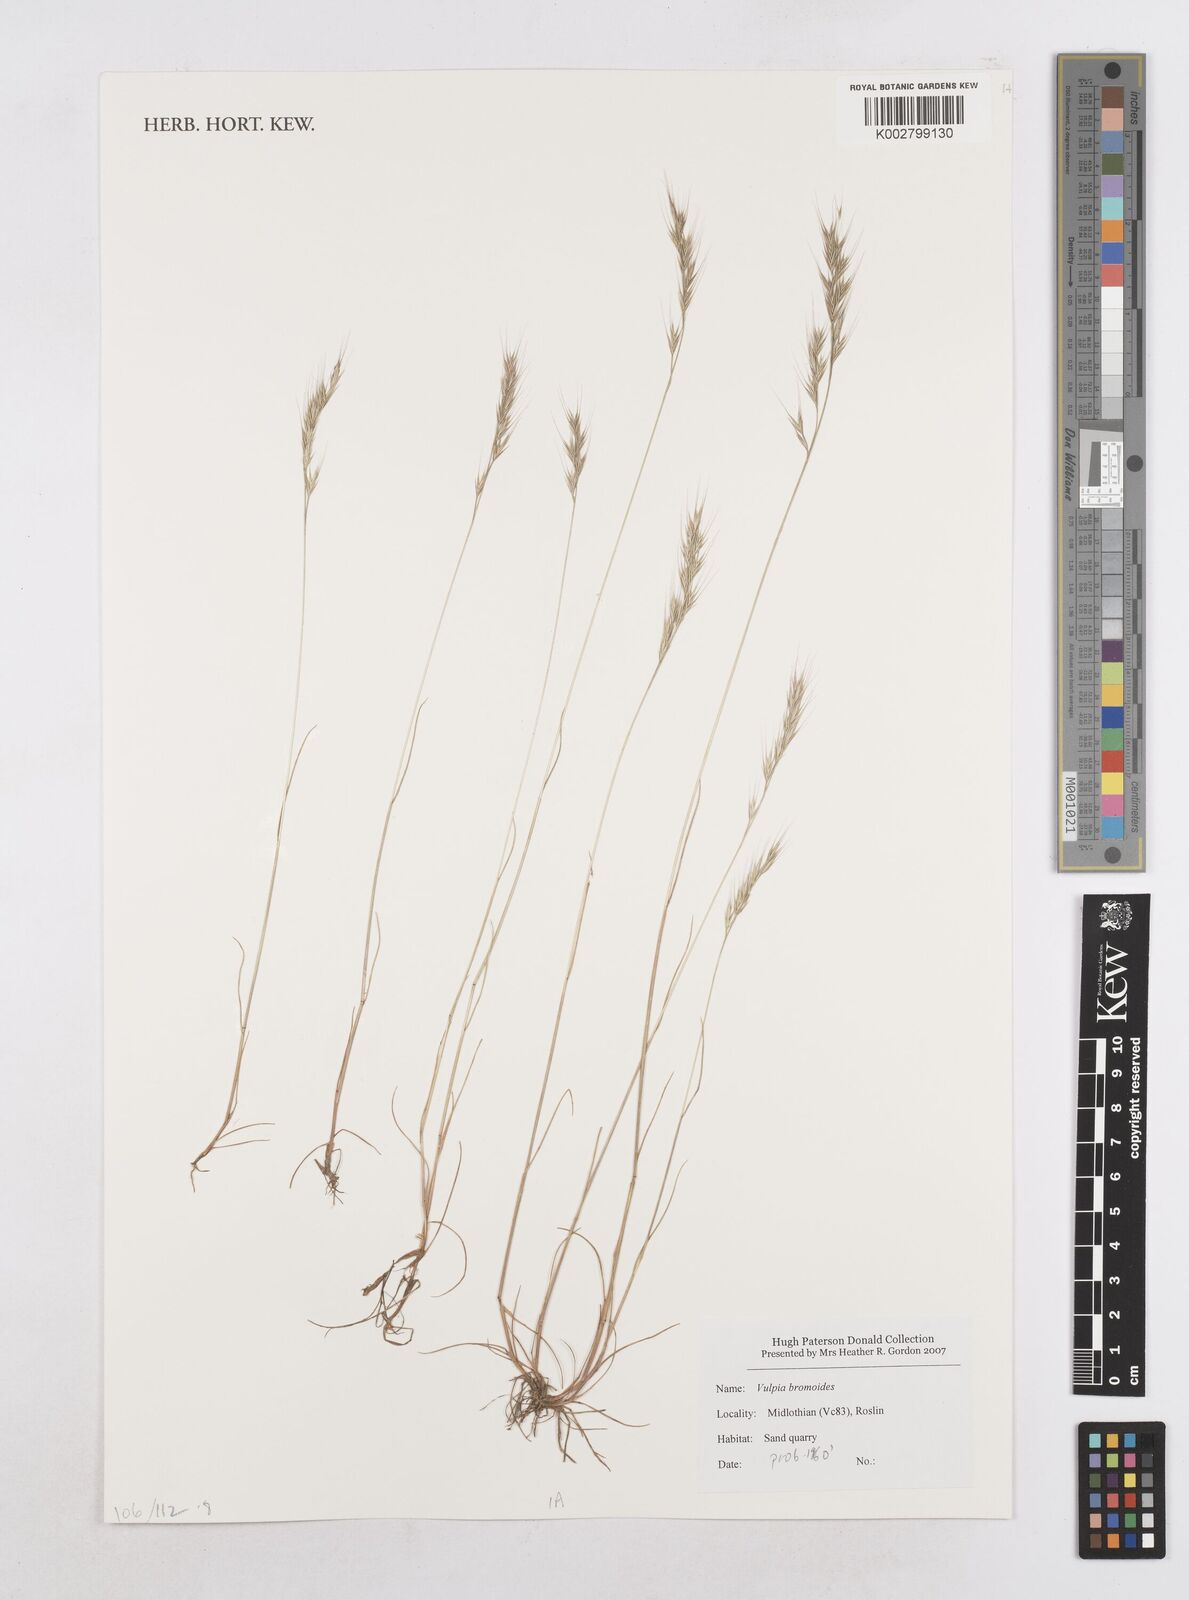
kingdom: Plantae
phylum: Tracheophyta
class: Liliopsida
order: Poales
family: Poaceae
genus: Festuca
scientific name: Festuca bromoides
